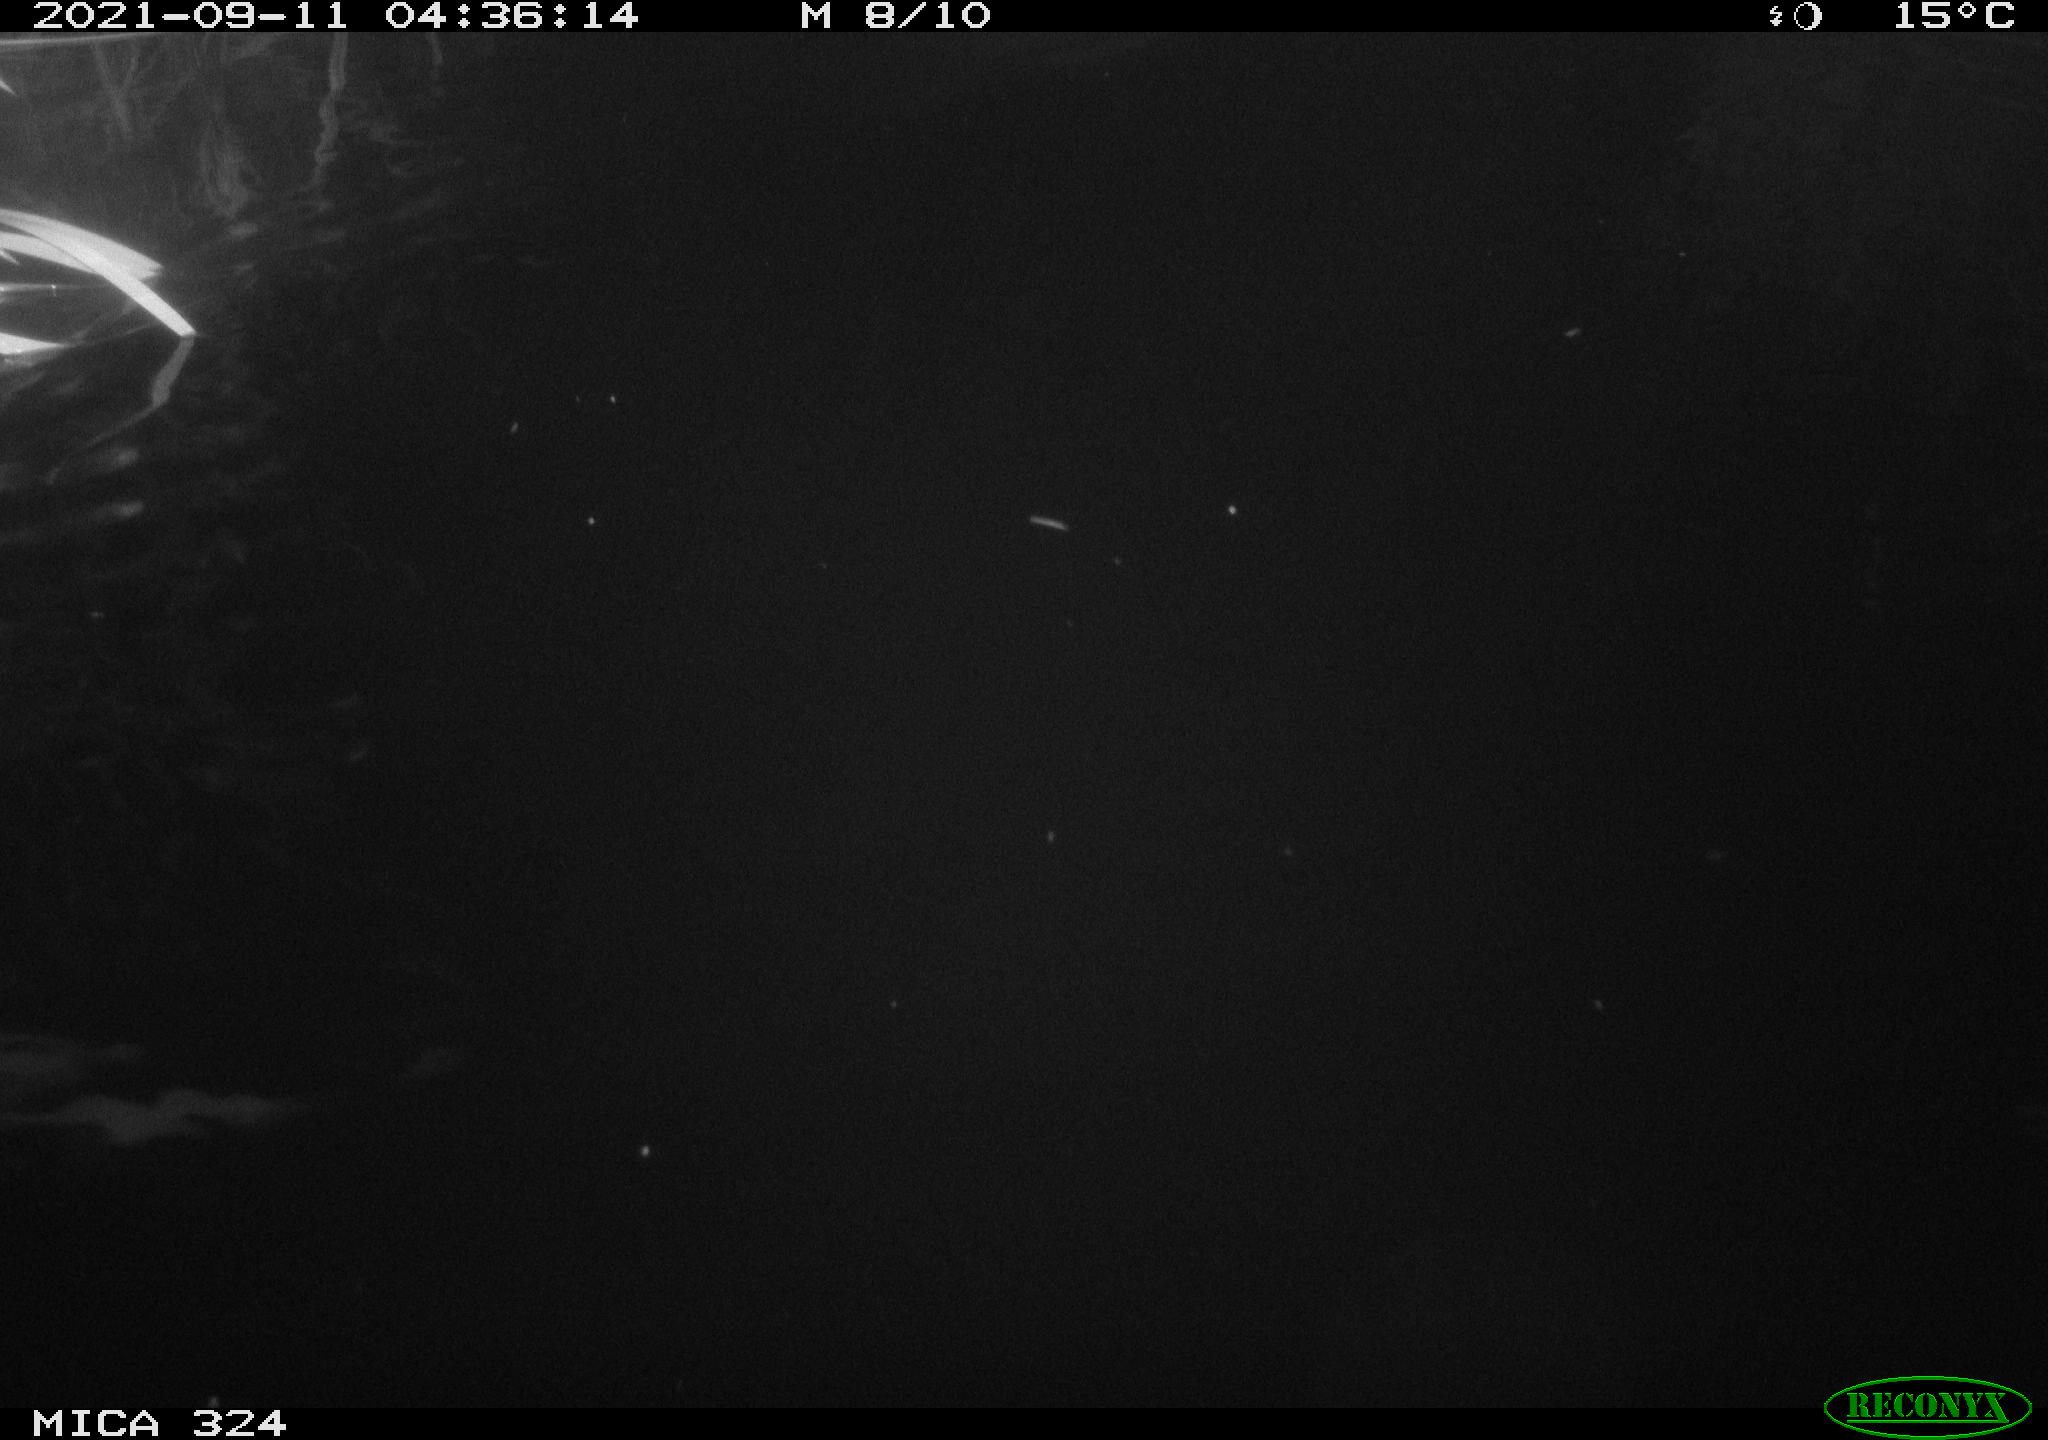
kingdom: Animalia
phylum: Chordata
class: Mammalia
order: Rodentia
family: Cricetidae
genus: Ondatra
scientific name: Ondatra zibethicus
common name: Muskrat
